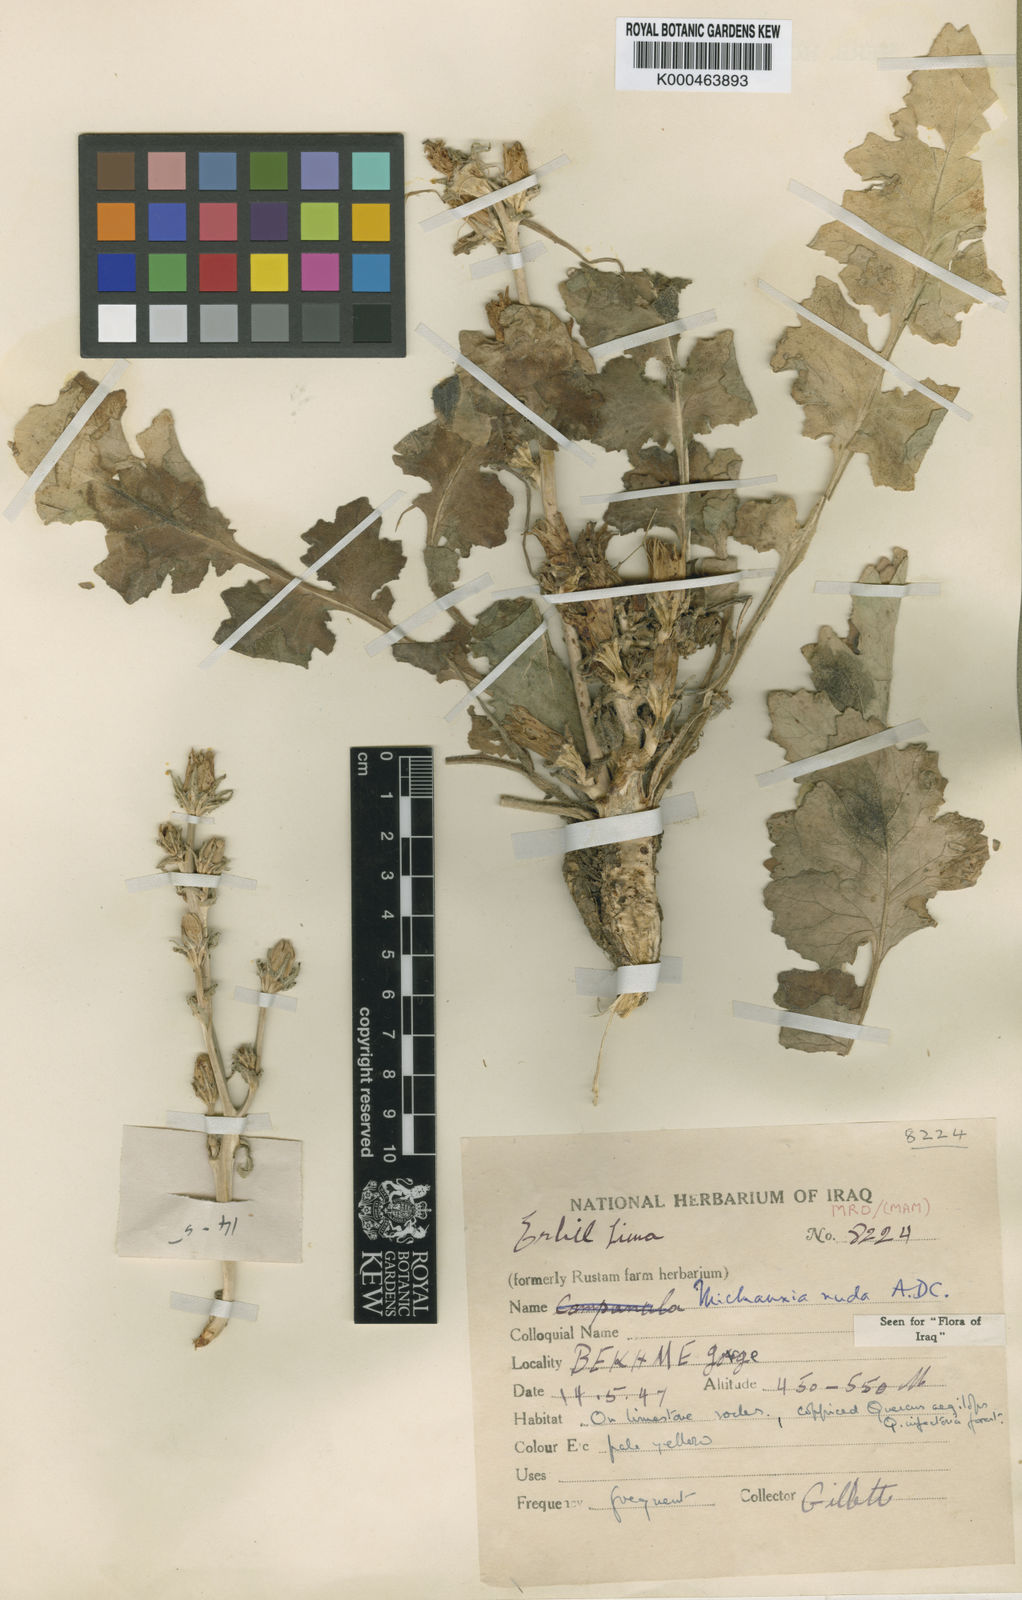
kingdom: Plantae
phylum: Tracheophyta
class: Magnoliopsida
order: Asterales
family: Campanulaceae
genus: Michauxia
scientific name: Michauxia nuda
